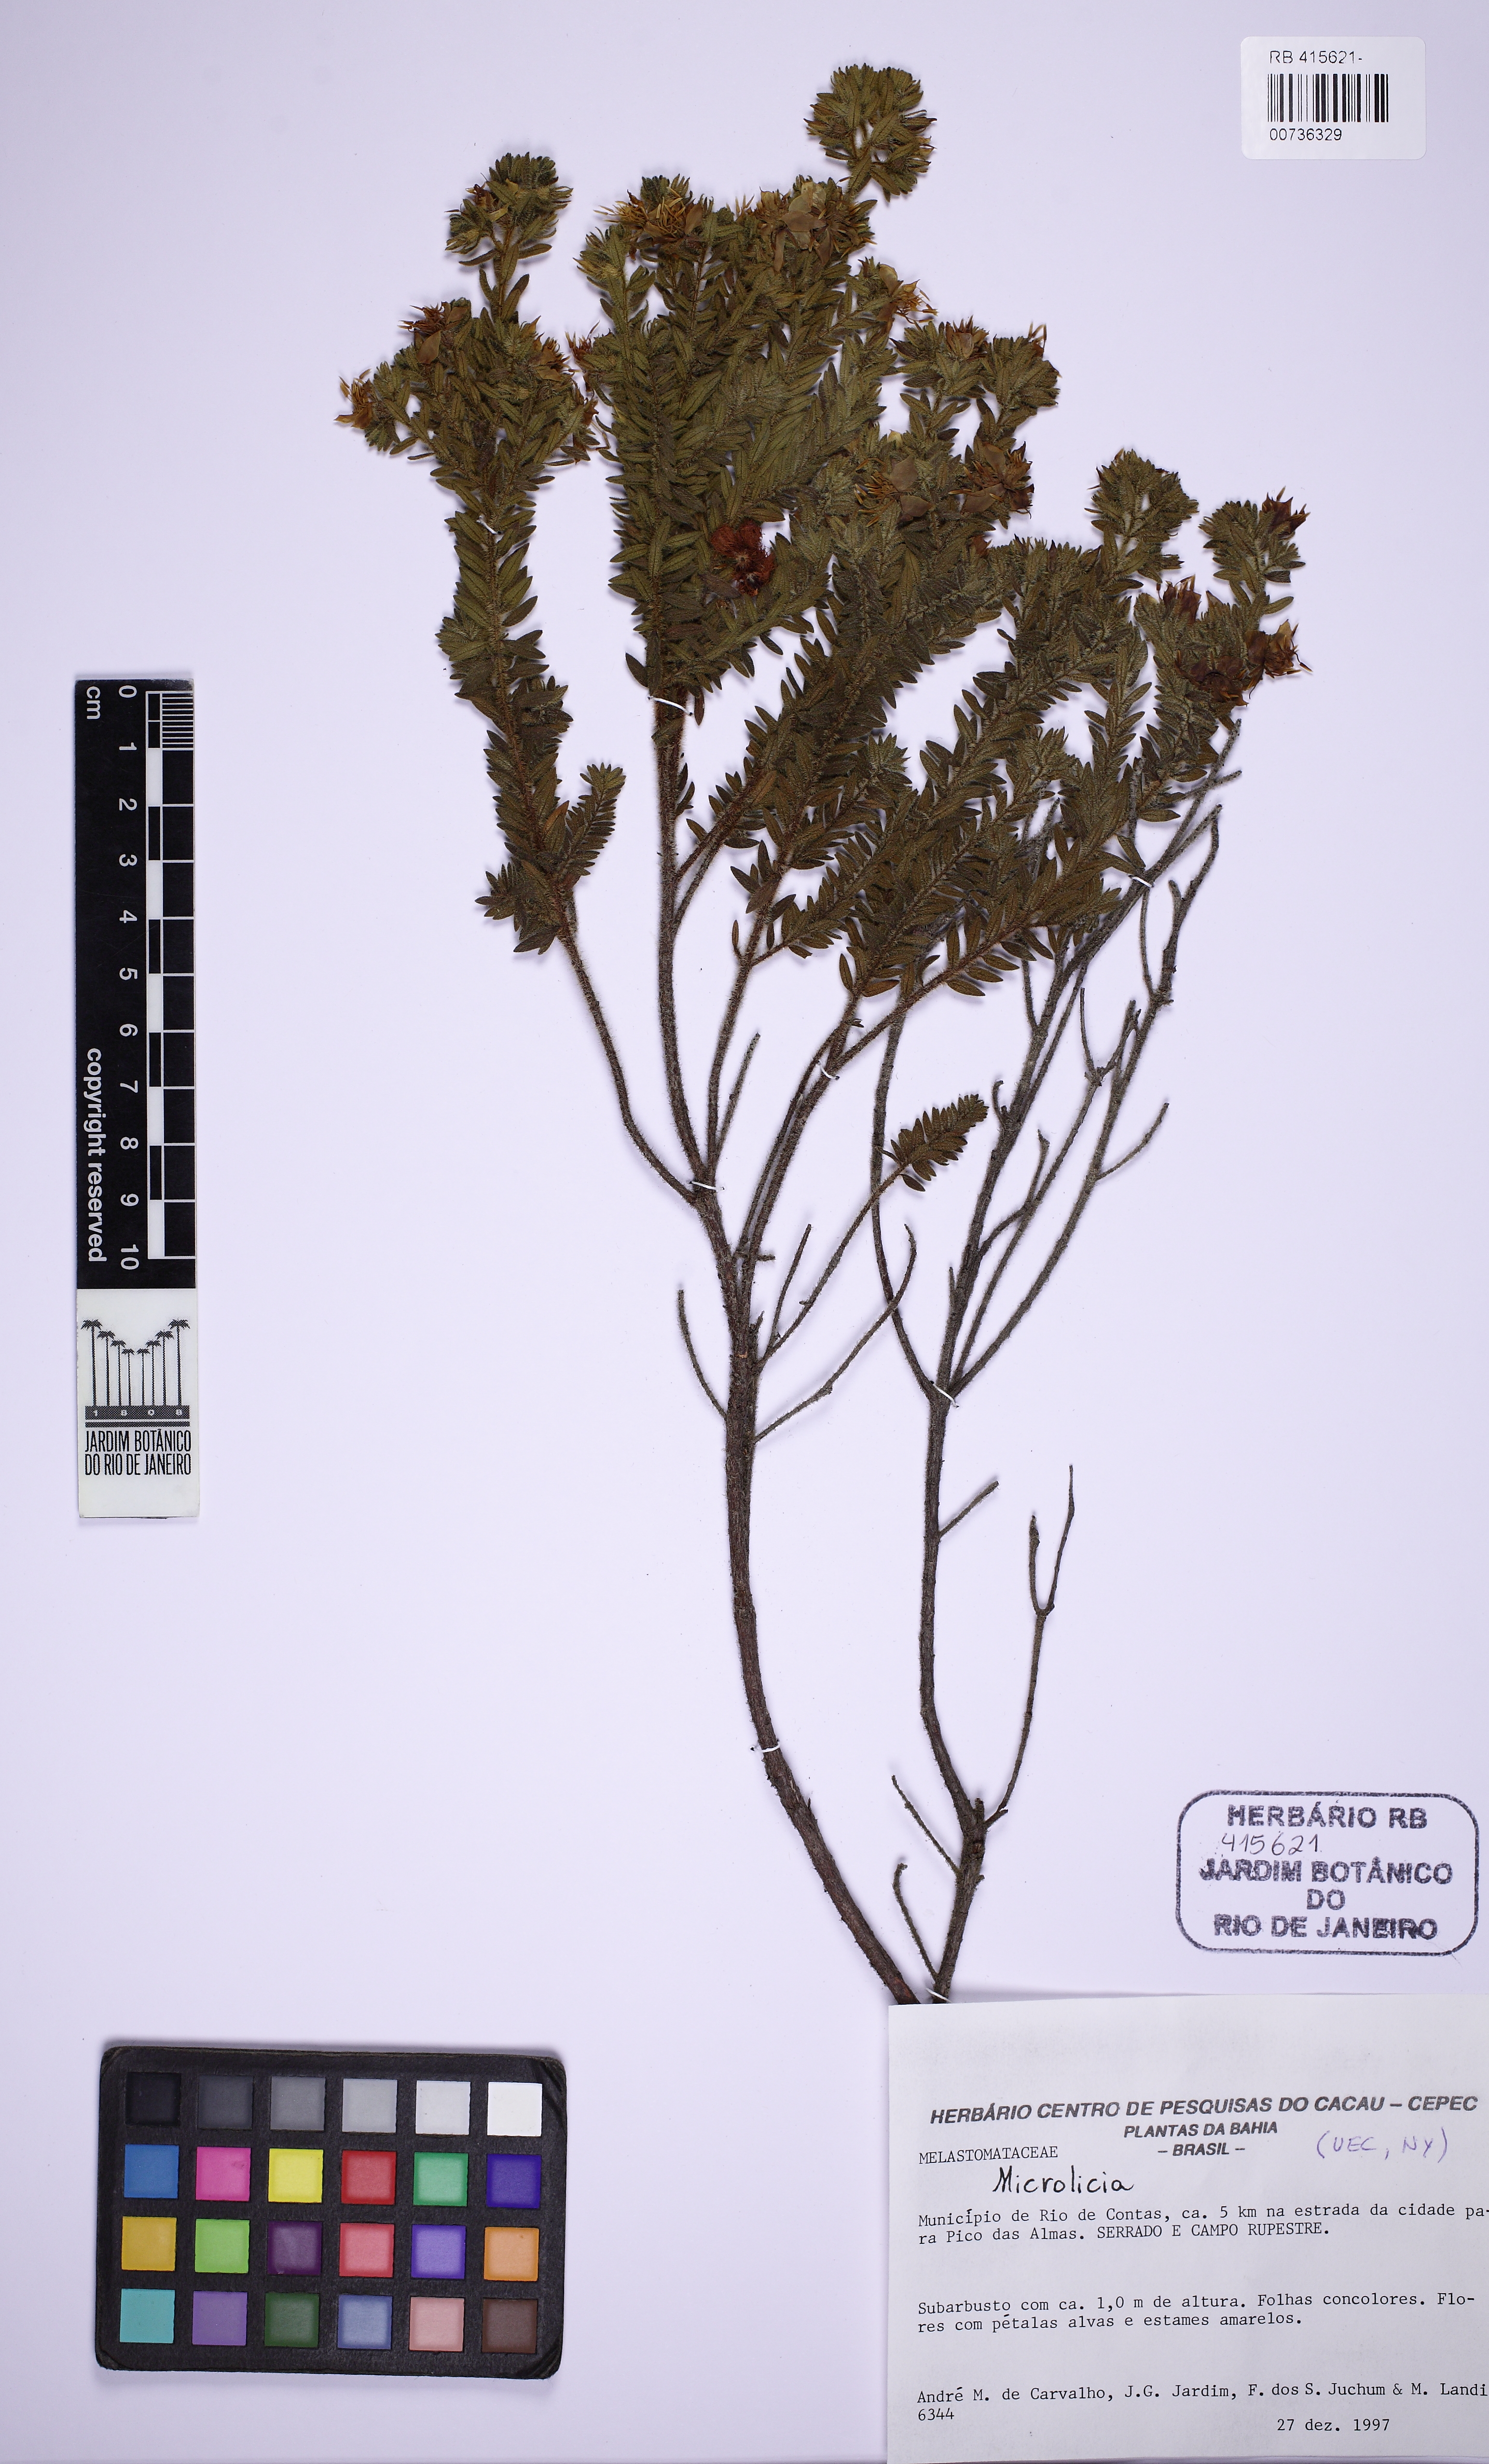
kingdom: Plantae
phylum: Tracheophyta
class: Magnoliopsida
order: Myrtales
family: Melastomataceae
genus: Microlicia
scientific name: Microlicia
